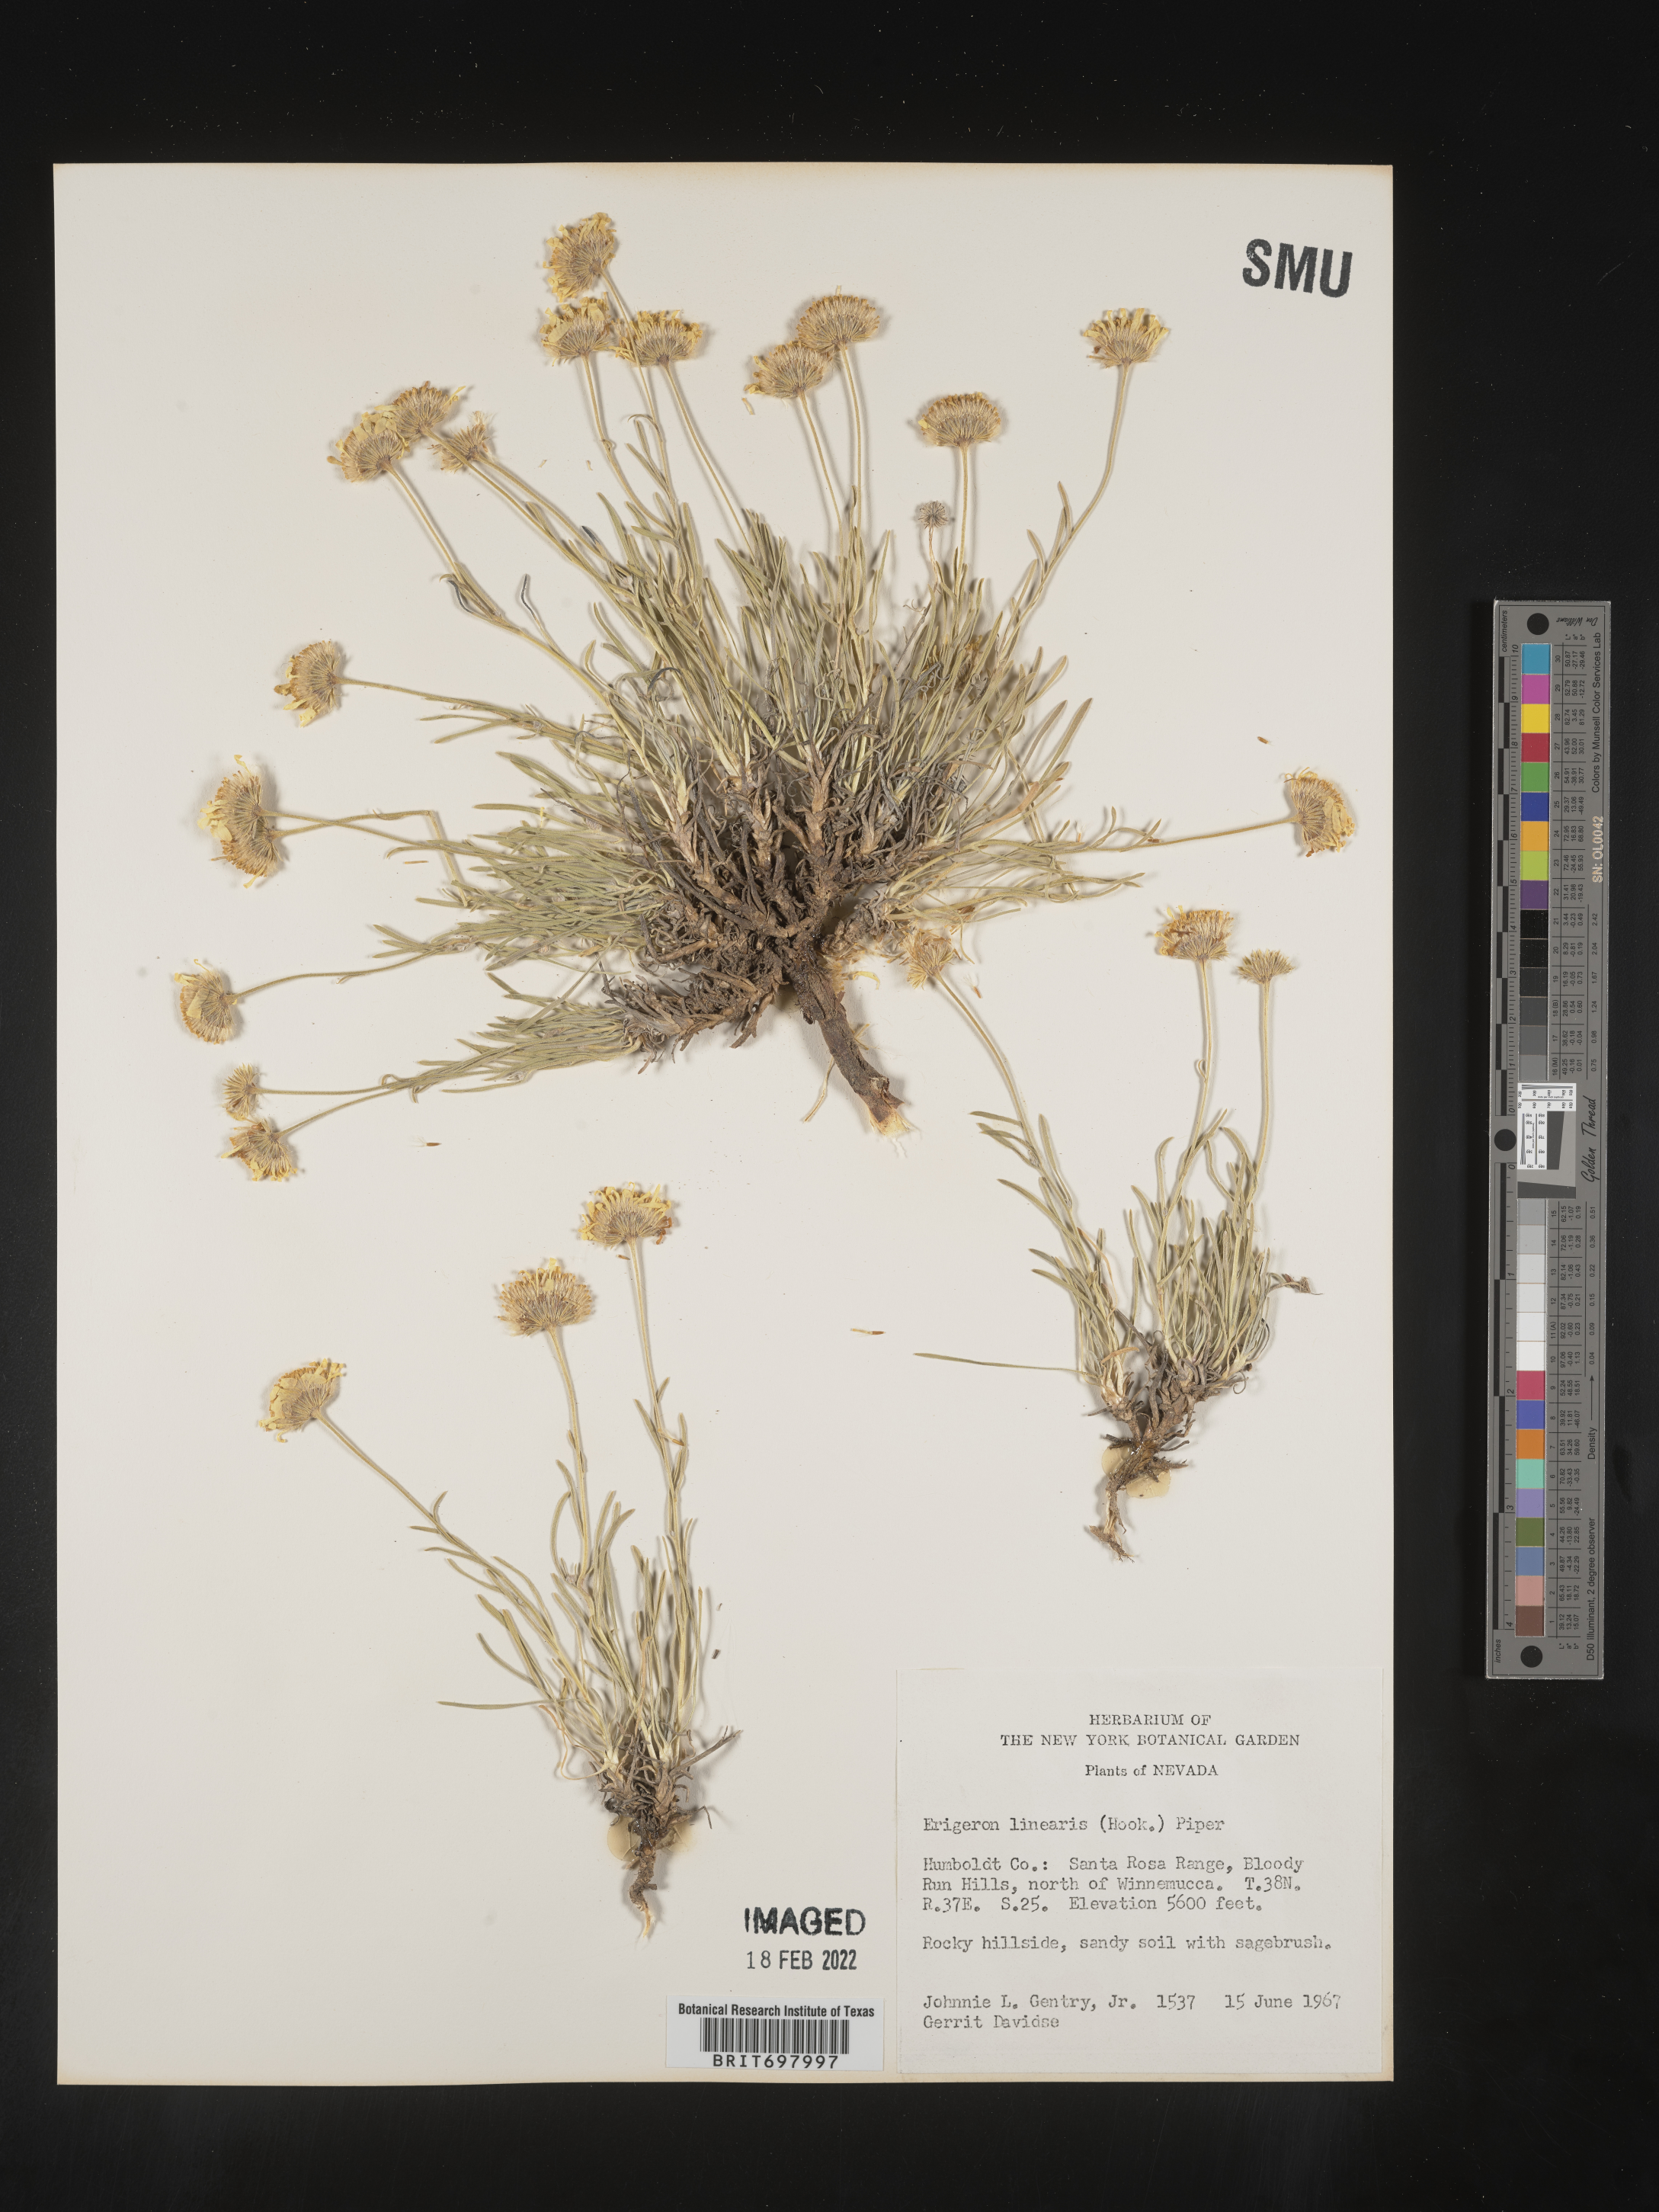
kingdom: Plantae
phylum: Tracheophyta
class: Magnoliopsida
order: Asterales
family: Asteraceae
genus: Erigeron
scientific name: Erigeron linearis
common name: Desert yellow fleabane
